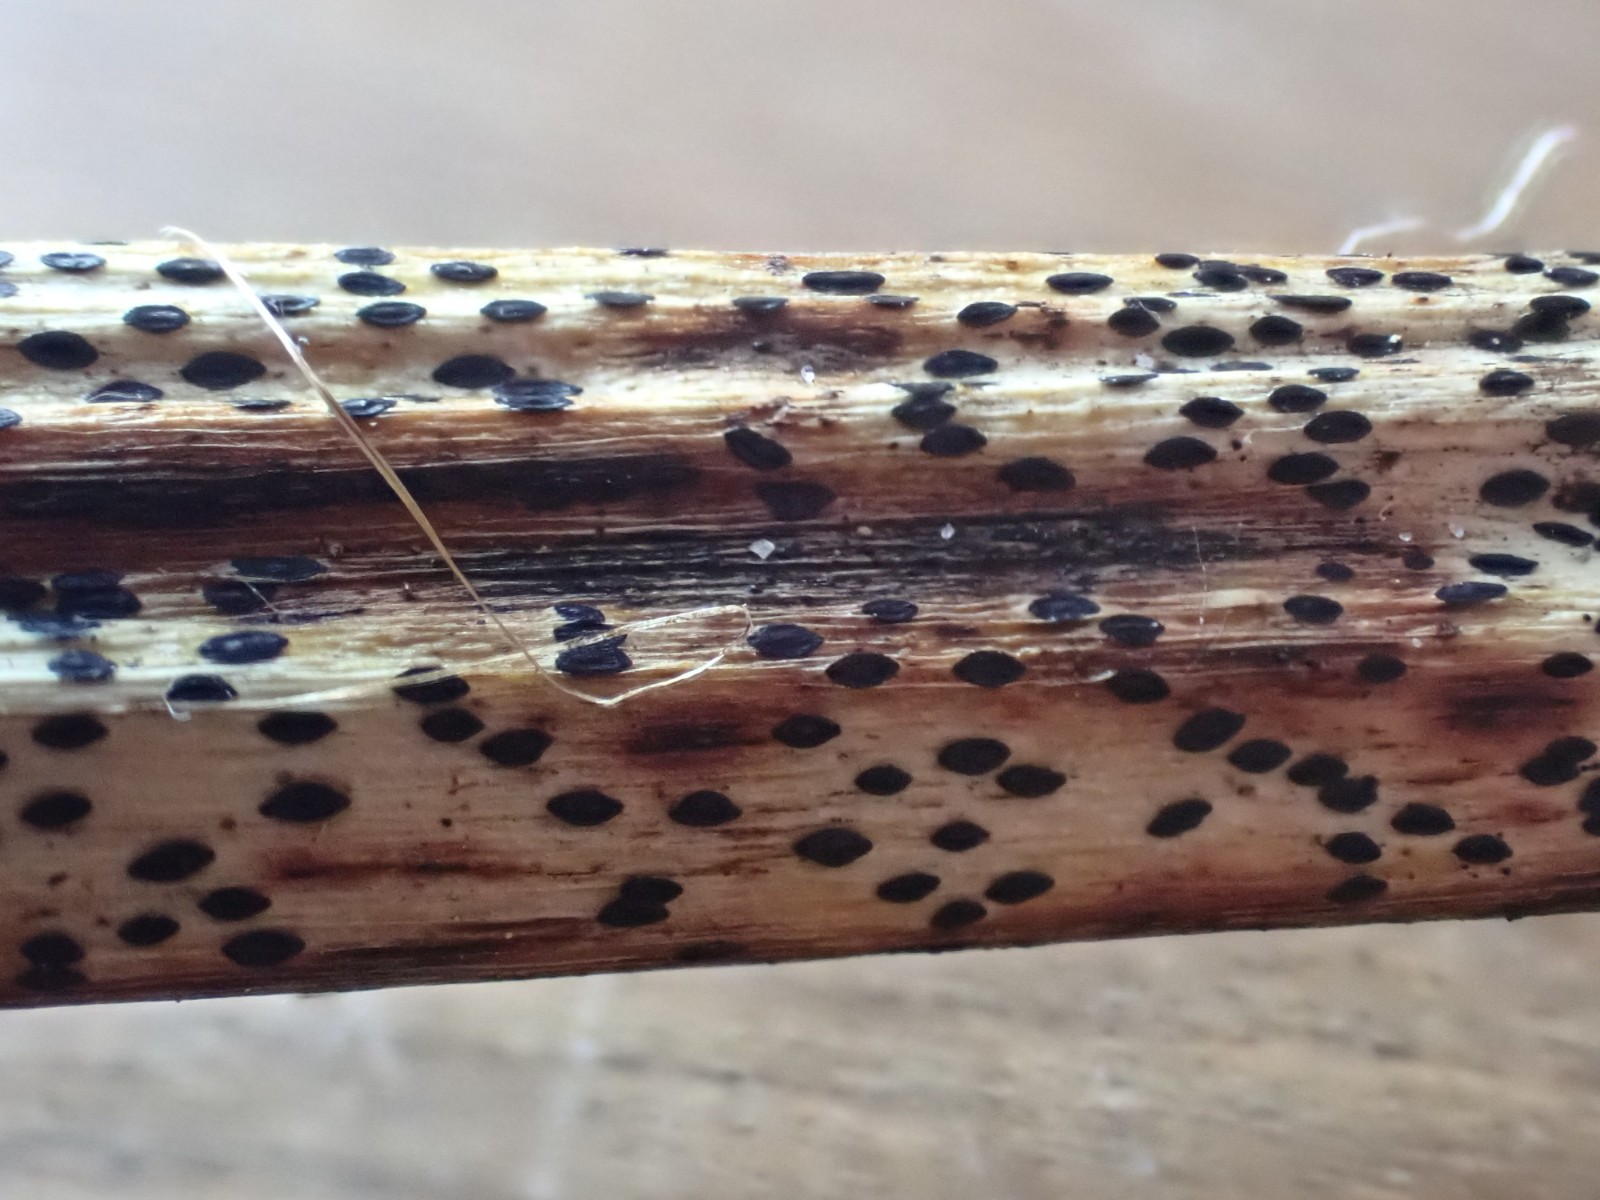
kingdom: Fungi
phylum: Ascomycota
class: Leotiomycetes
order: Rhytismatales
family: Rhytismataceae
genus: Lophodermium
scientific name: Lophodermium paeoniae
